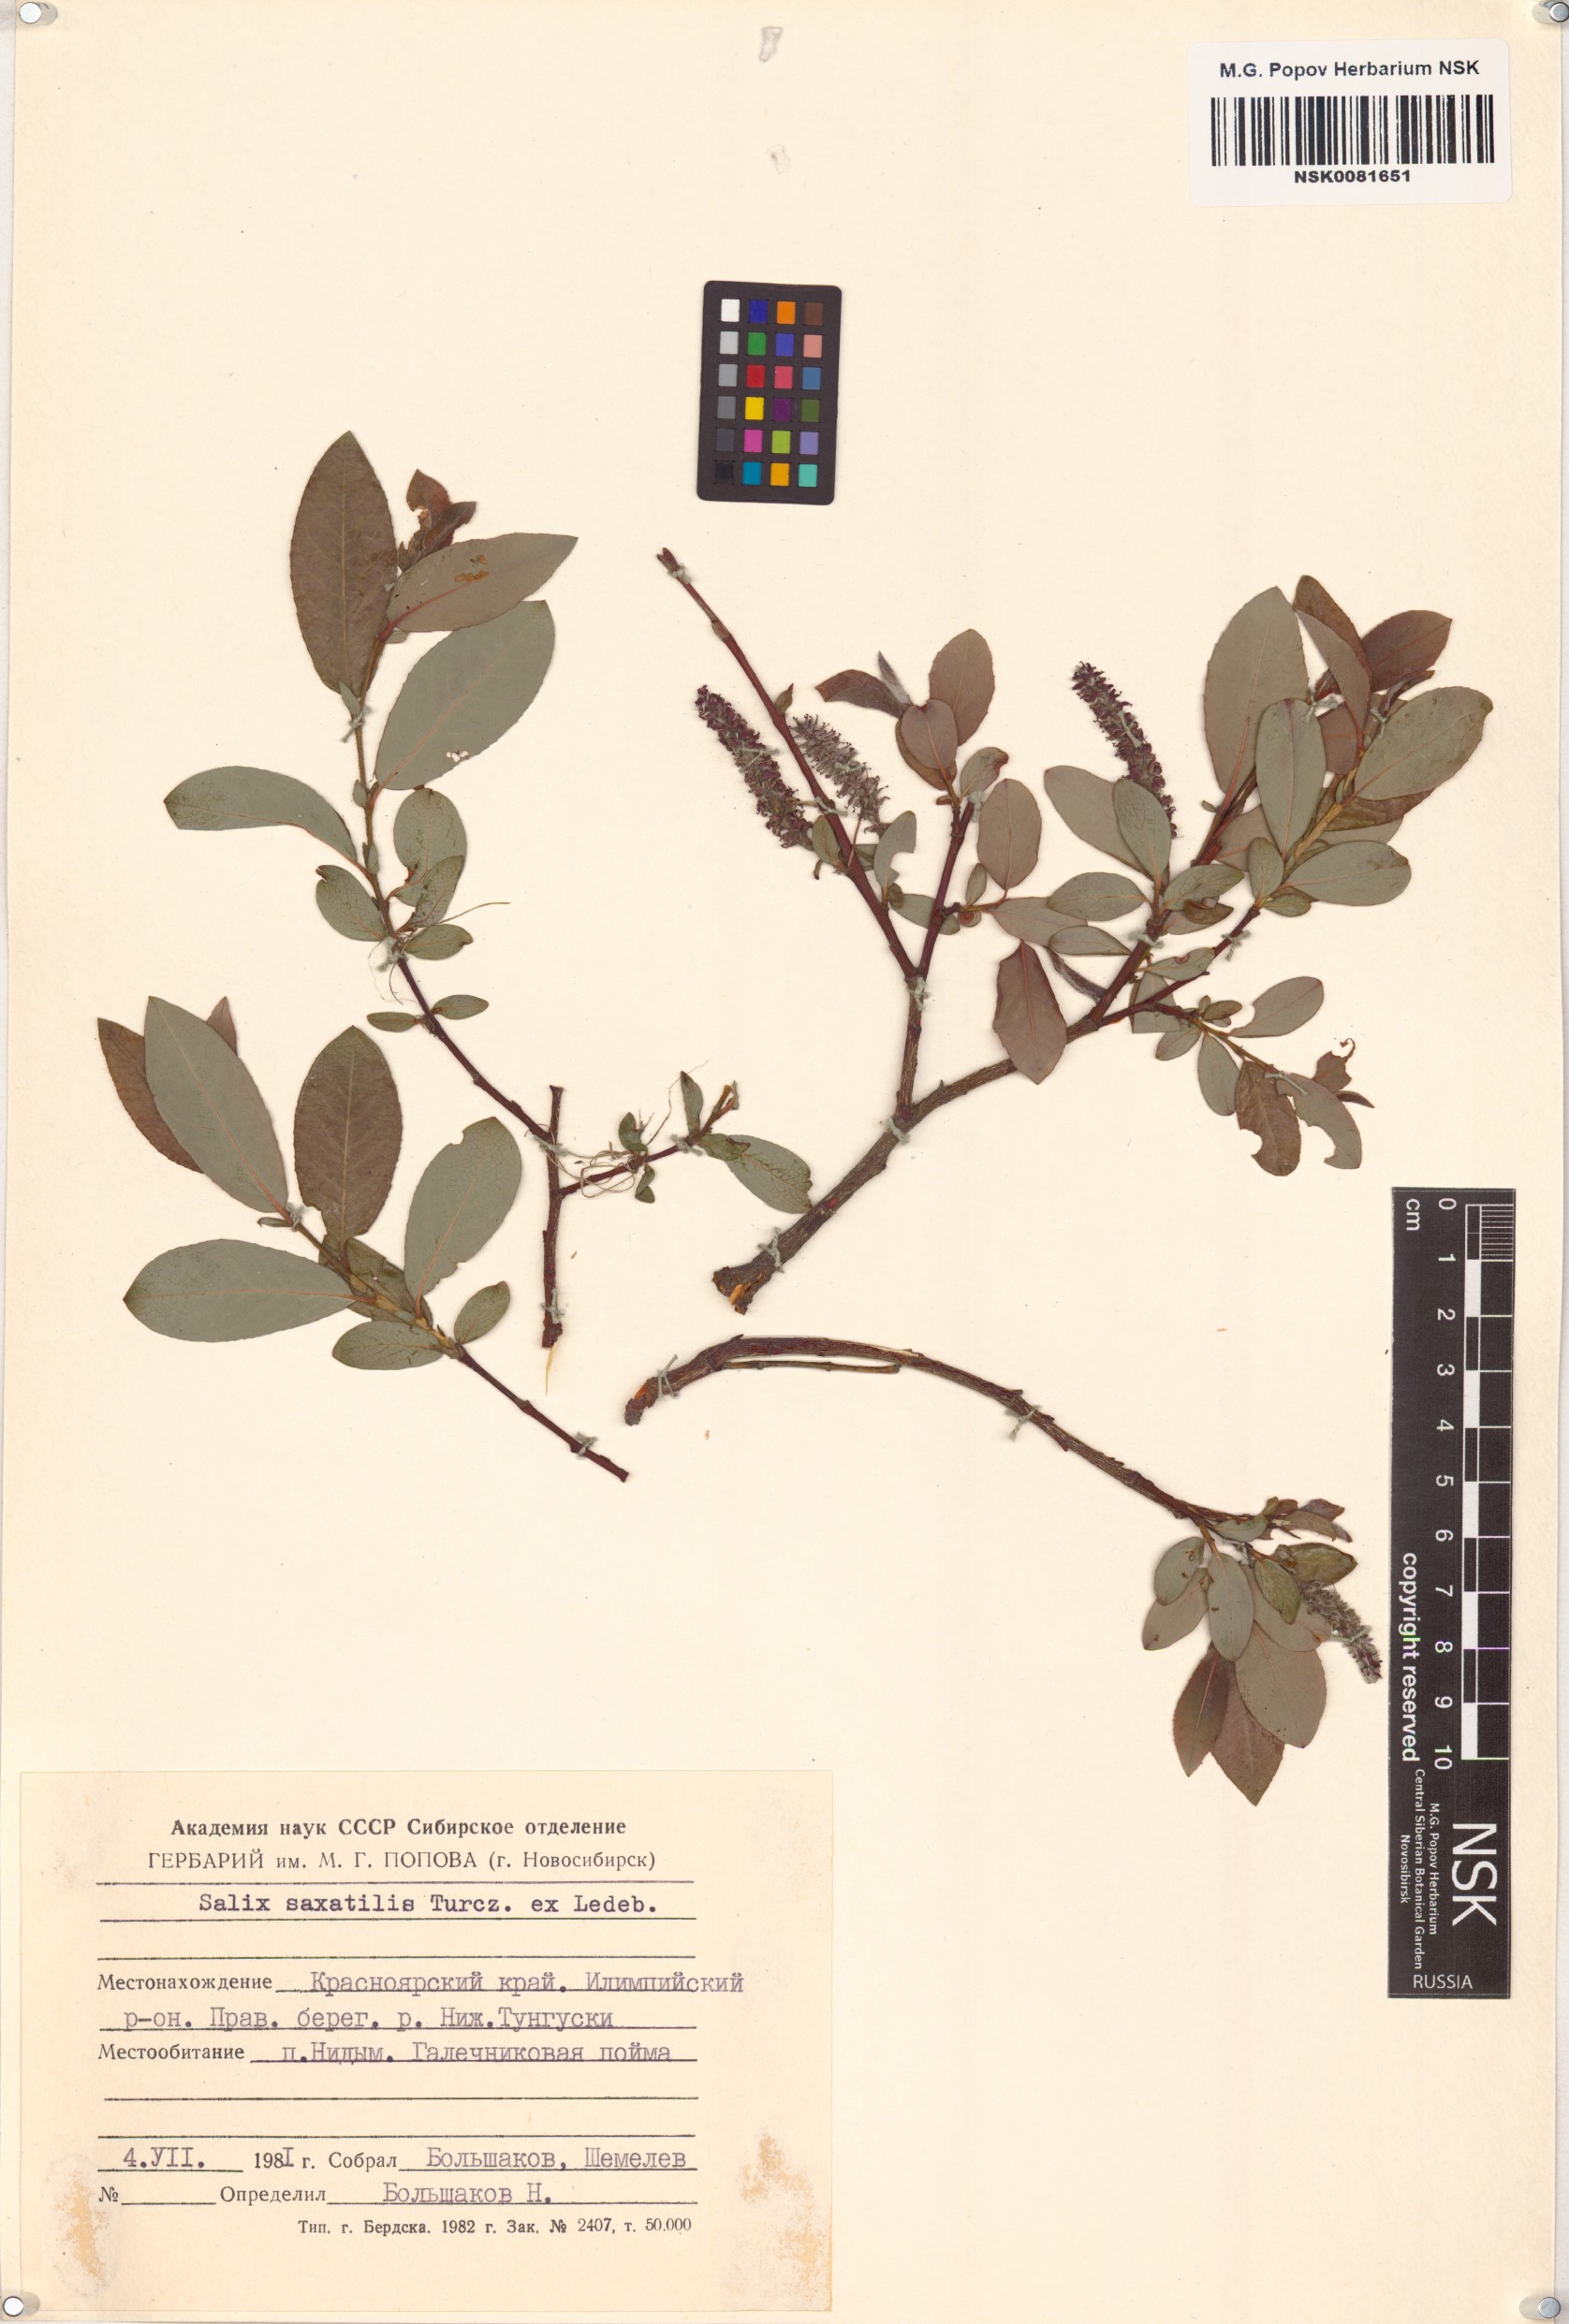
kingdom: Plantae
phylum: Tracheophyta
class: Magnoliopsida
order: Malpighiales
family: Salicaceae
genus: Salix
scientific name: Salix saxatilis
